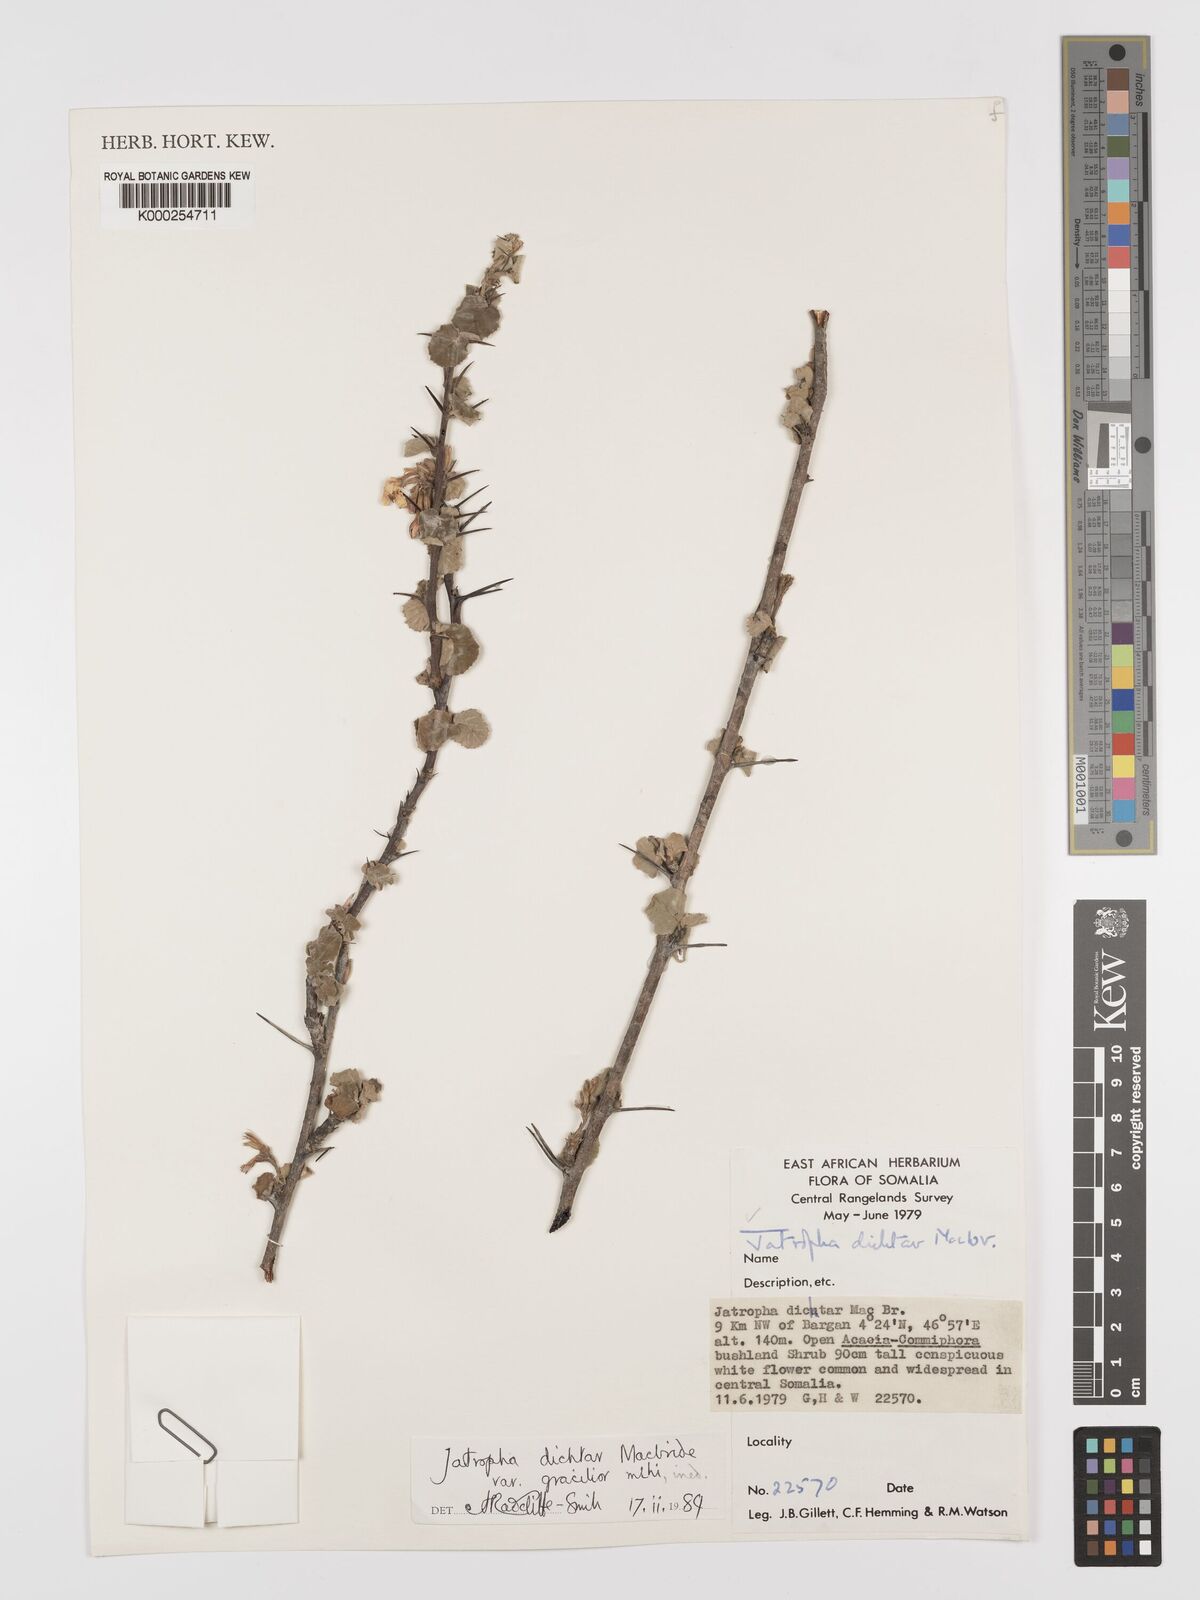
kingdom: Plantae
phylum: Tracheophyta
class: Magnoliopsida
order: Malpighiales
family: Euphorbiaceae
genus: Jatropha
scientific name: Jatropha dichtar
